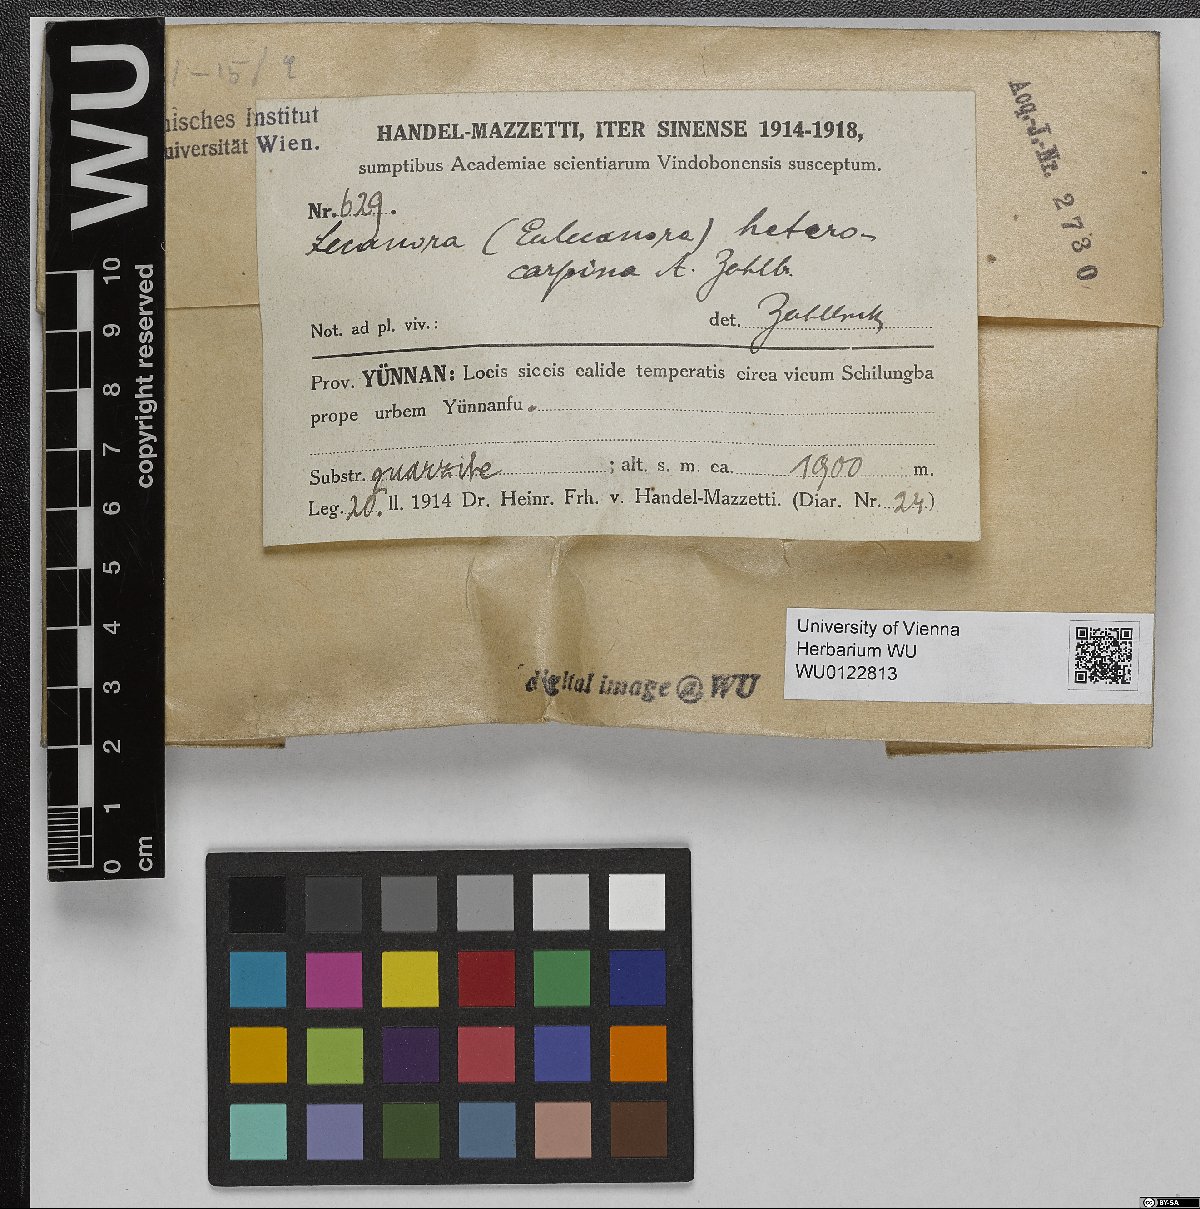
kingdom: Fungi
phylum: Ascomycota
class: Lecanoromycetes
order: Lecanorales
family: Lecanoraceae
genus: Lecanora
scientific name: Lecanora heterocarpa
